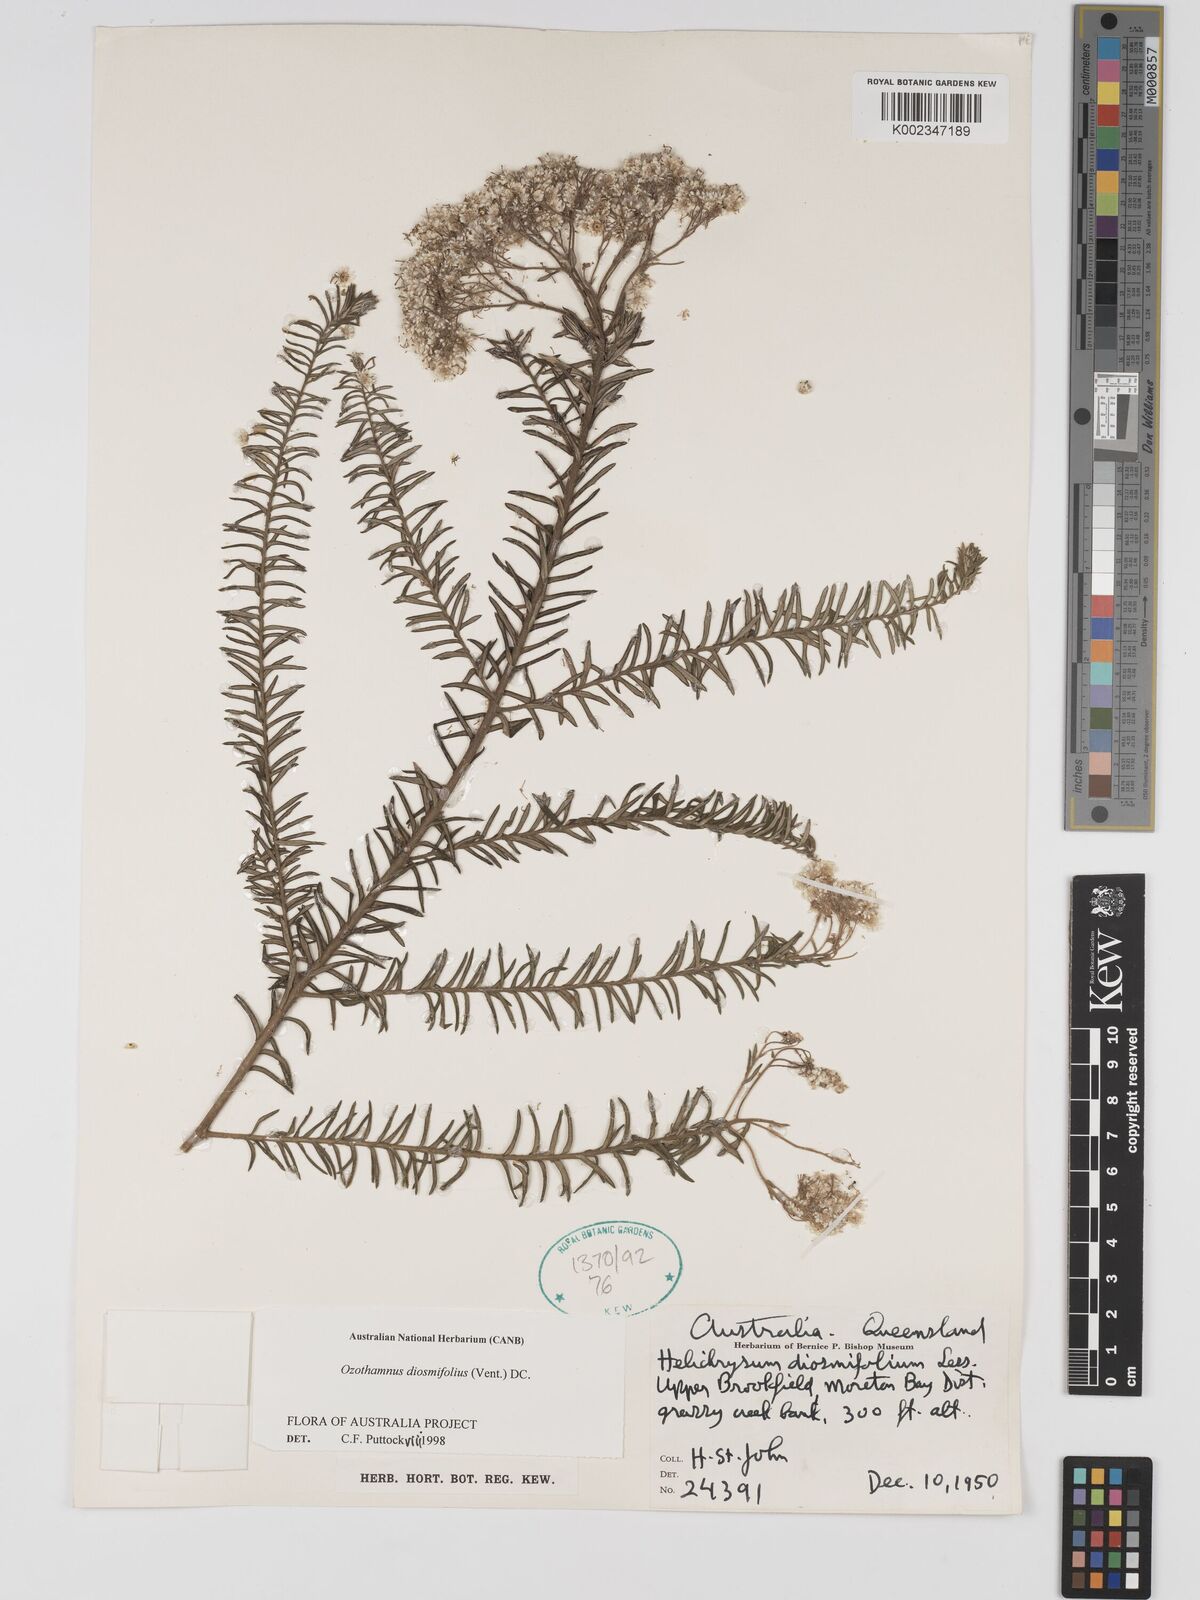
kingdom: Plantae
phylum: Tracheophyta
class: Magnoliopsida
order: Asterales
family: Asteraceae
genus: Ozothamnus
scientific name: Ozothamnus diosmifolius
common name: White-dogwood
